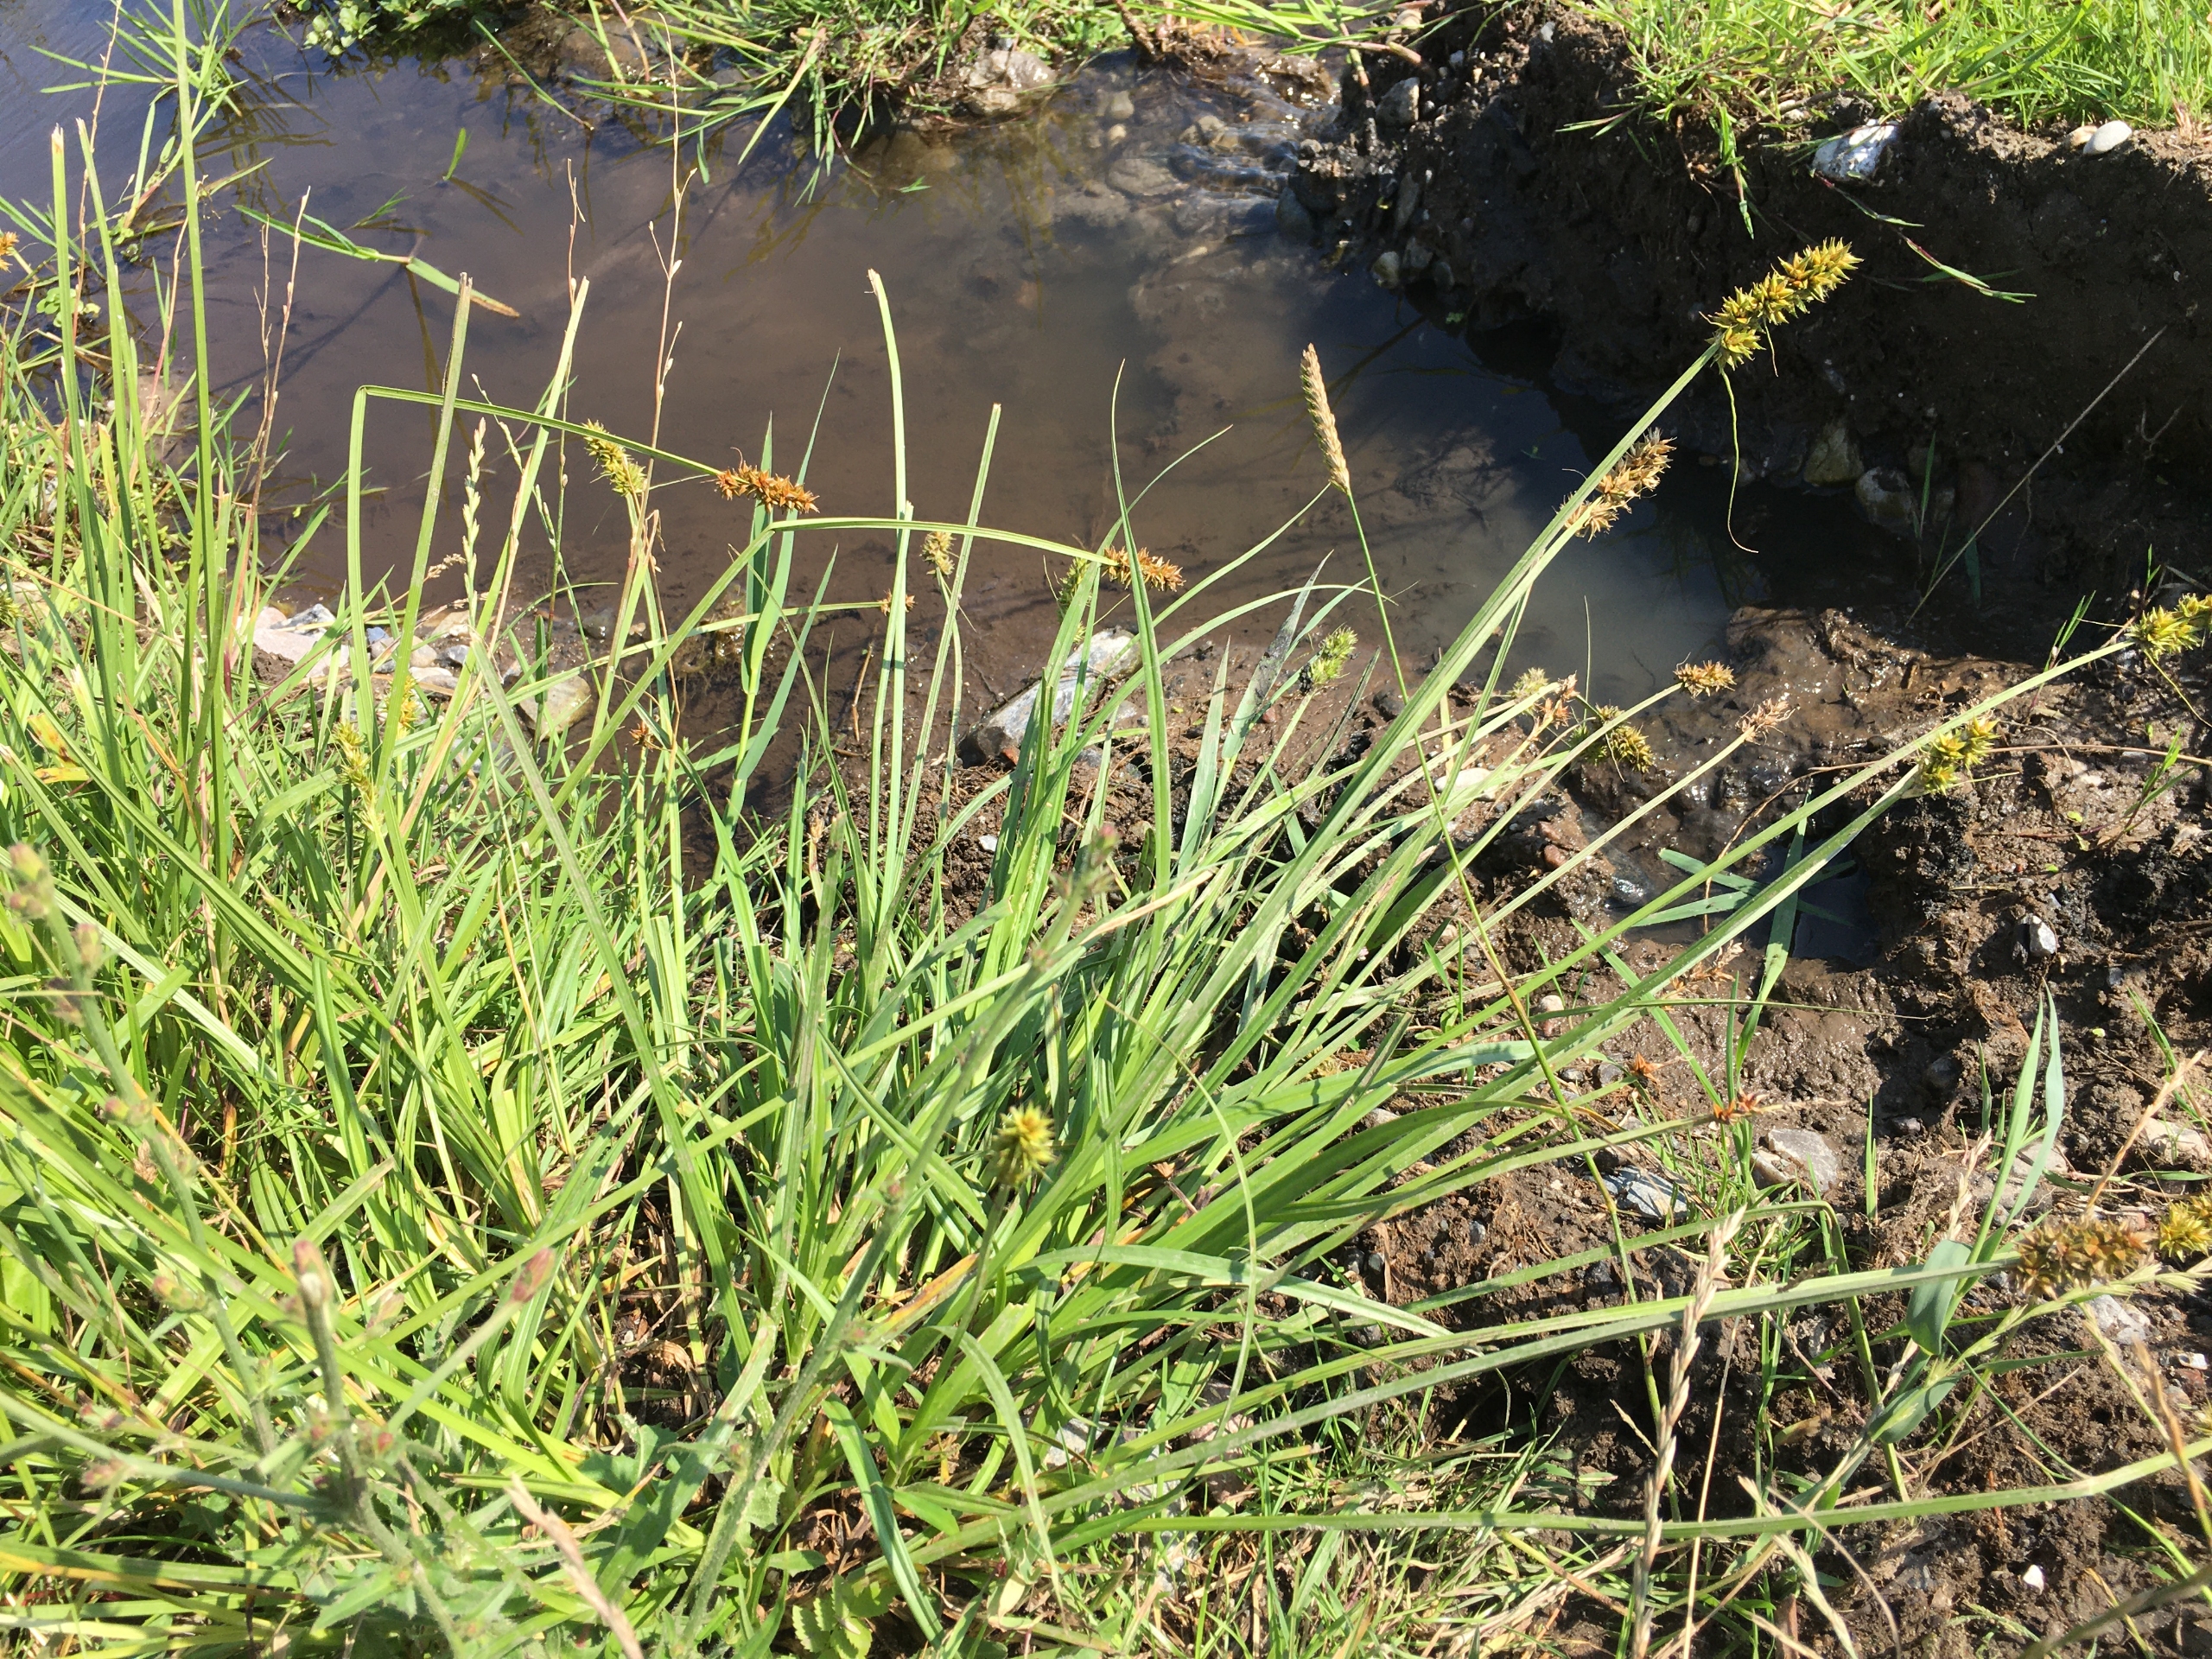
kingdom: Plantae
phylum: Tracheophyta
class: Liliopsida
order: Poales
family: Cyperaceae
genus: Carex
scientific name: Carex otrubae
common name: Sylt-star
